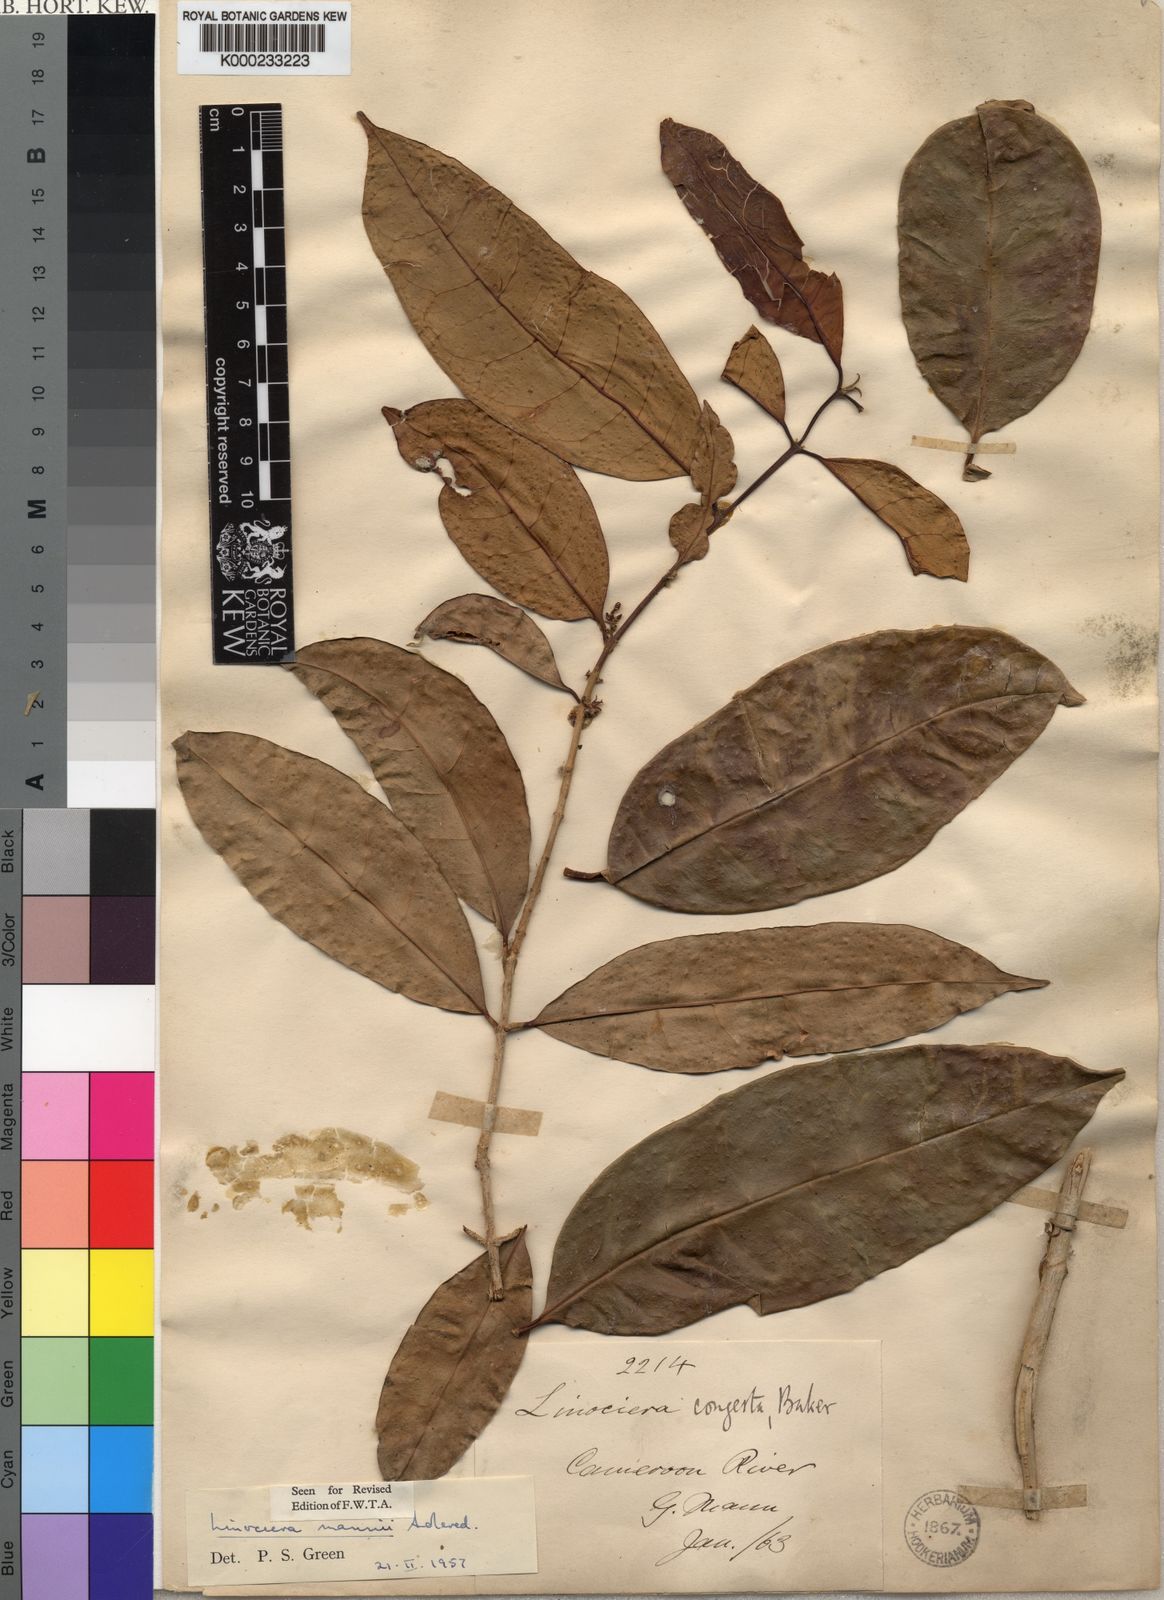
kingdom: Plantae
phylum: Tracheophyta
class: Magnoliopsida
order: Lamiales
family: Oleaceae
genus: Noronhia
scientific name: Noronhia nilotica
